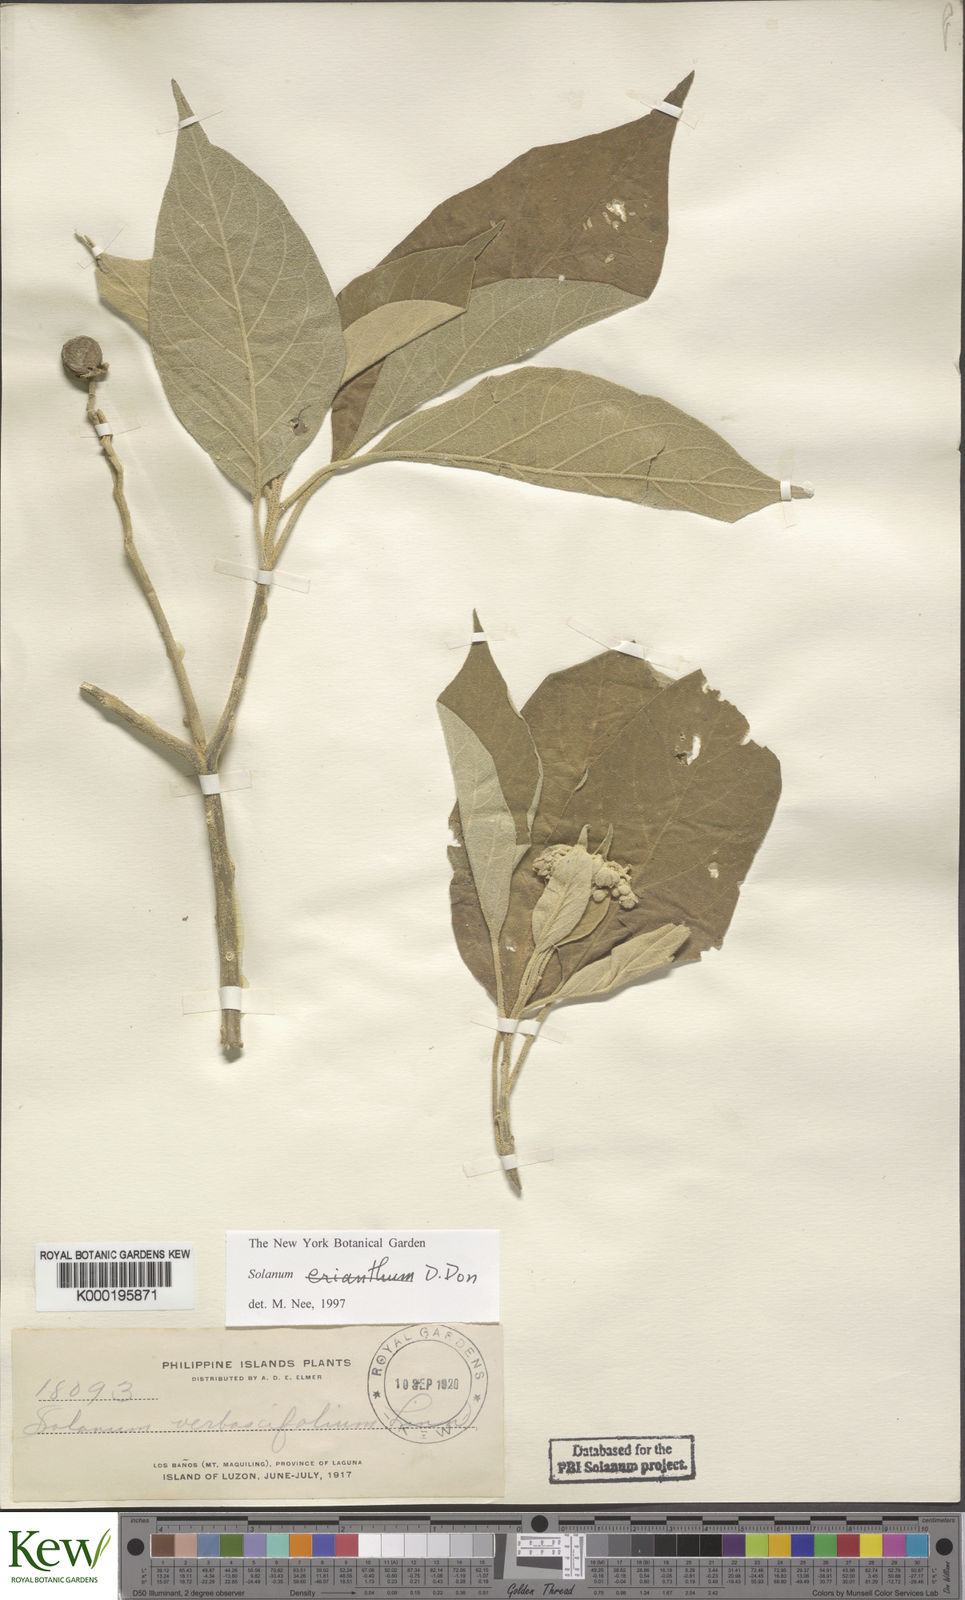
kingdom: Plantae
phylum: Tracheophyta
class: Magnoliopsida
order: Solanales
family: Solanaceae
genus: Solanum
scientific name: Solanum erianthum
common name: Tobacco-tree
